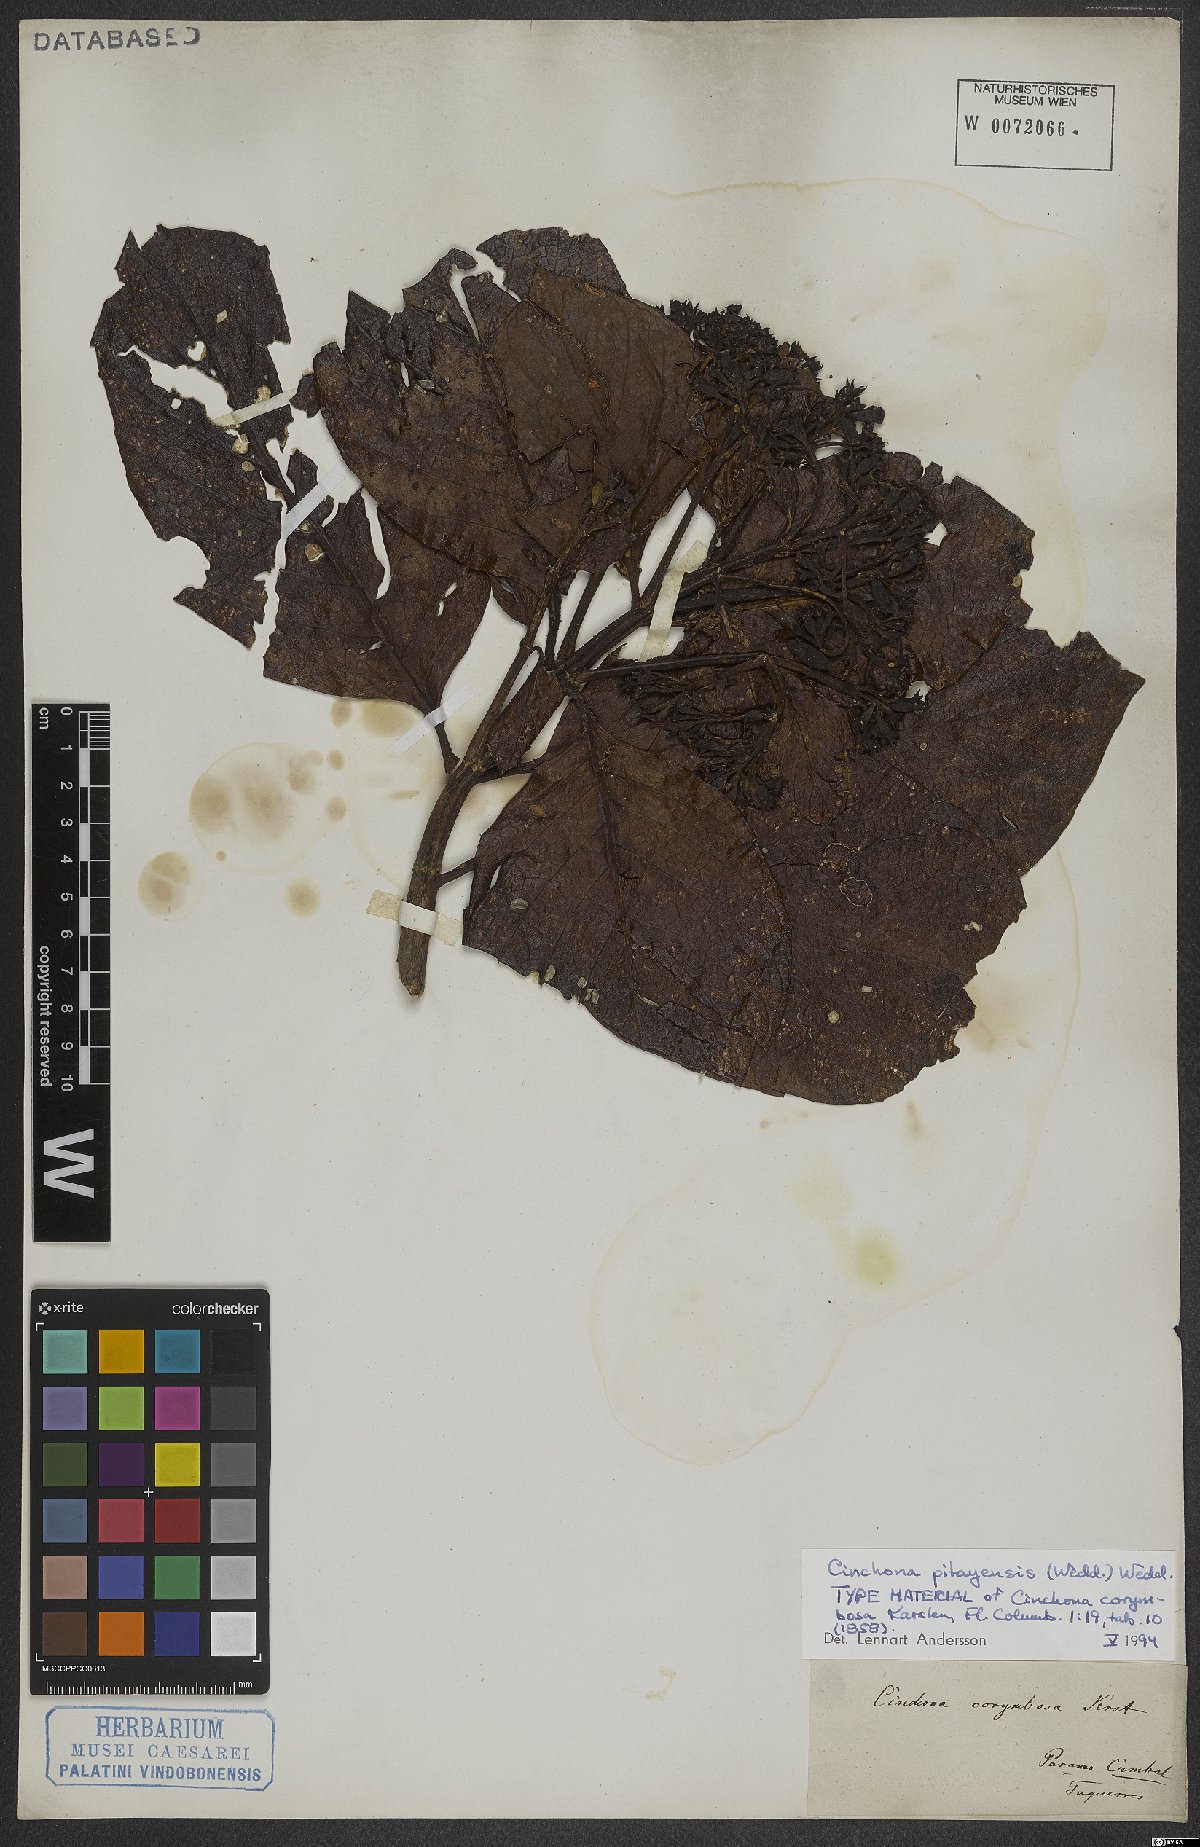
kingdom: Plantae
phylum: Tracheophyta
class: Magnoliopsida
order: Gentianales
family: Rubiaceae
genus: Cinchona
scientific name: Cinchona pitayensis
